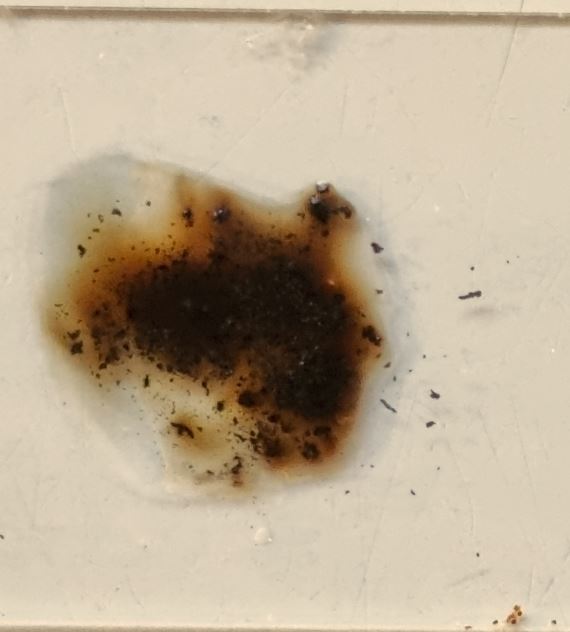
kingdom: Fungi
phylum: Ascomycota
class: Sordariomycetes
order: Xylariales
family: Hypoxylaceae
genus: Jackrogersella
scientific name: Jackrogersella multiformis
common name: foranderlig kulbær
